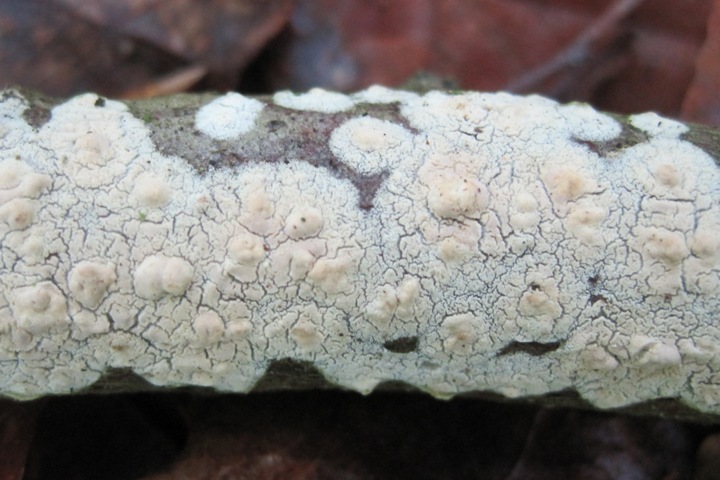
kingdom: Fungi
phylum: Basidiomycota
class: Agaricomycetes
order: Agaricales
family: Physalacriaceae
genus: Cylindrobasidium
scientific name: Cylindrobasidium evolvens
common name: sprækkehinde
